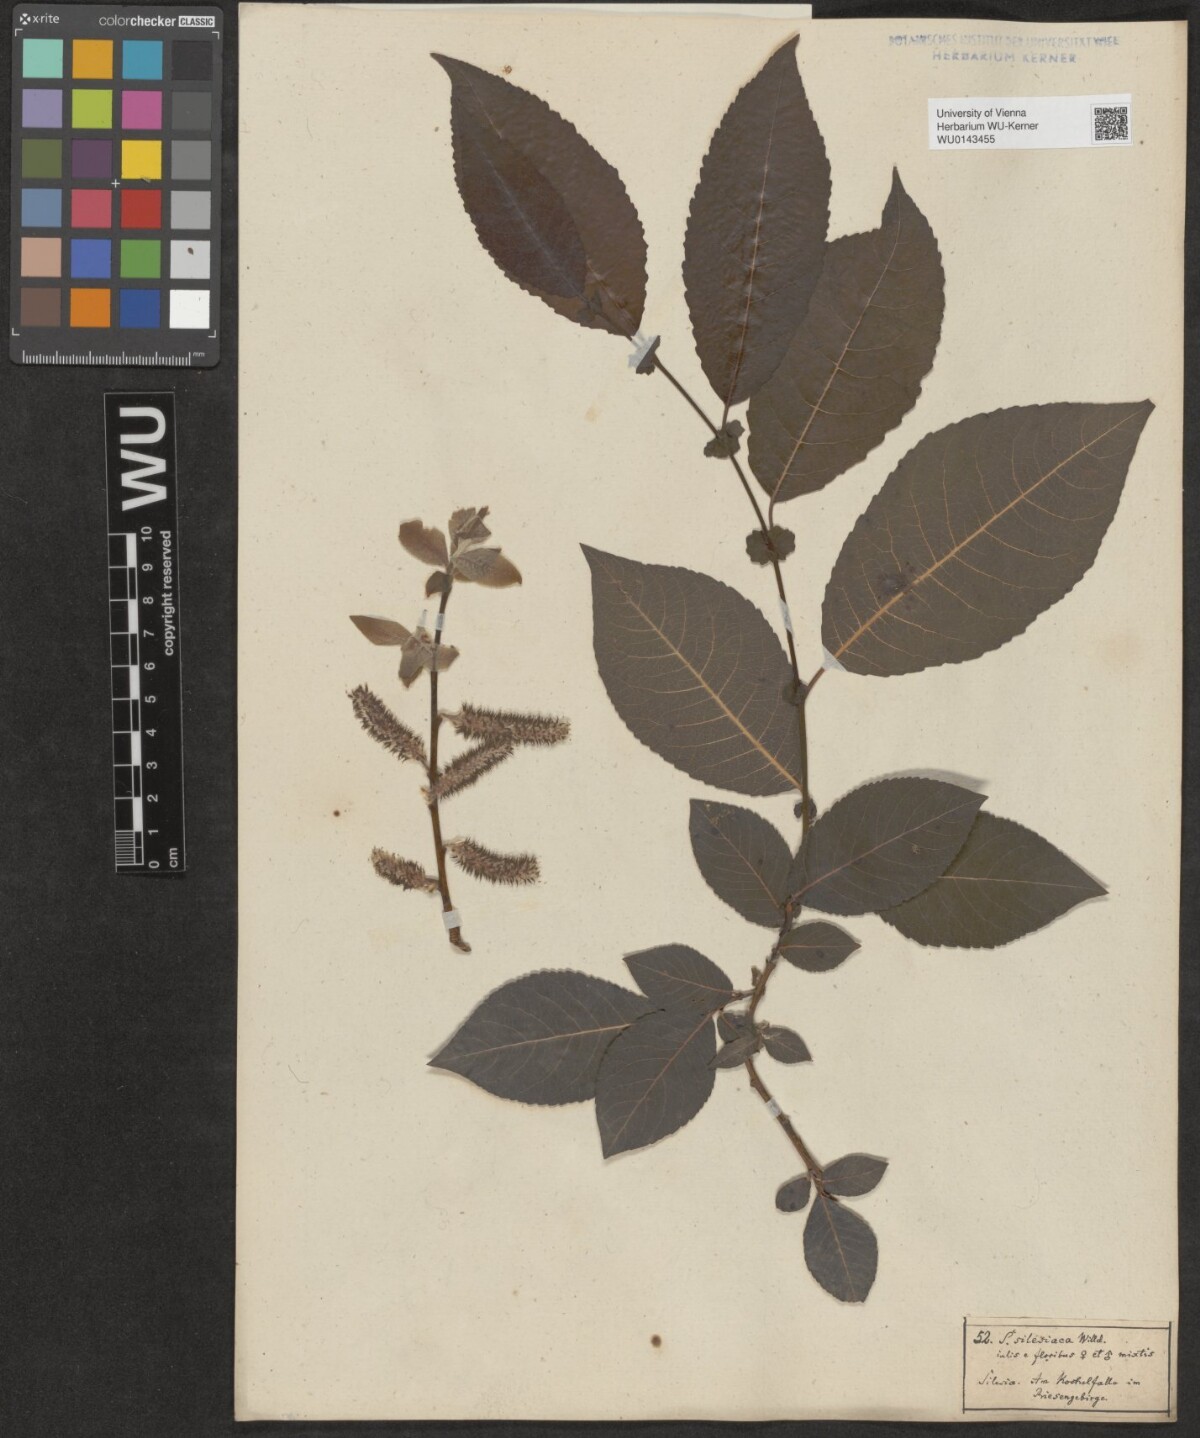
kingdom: Plantae
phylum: Tracheophyta
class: Magnoliopsida
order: Malpighiales
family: Salicaceae
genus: Salix
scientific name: Salix silesiaca
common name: Silesian willow
